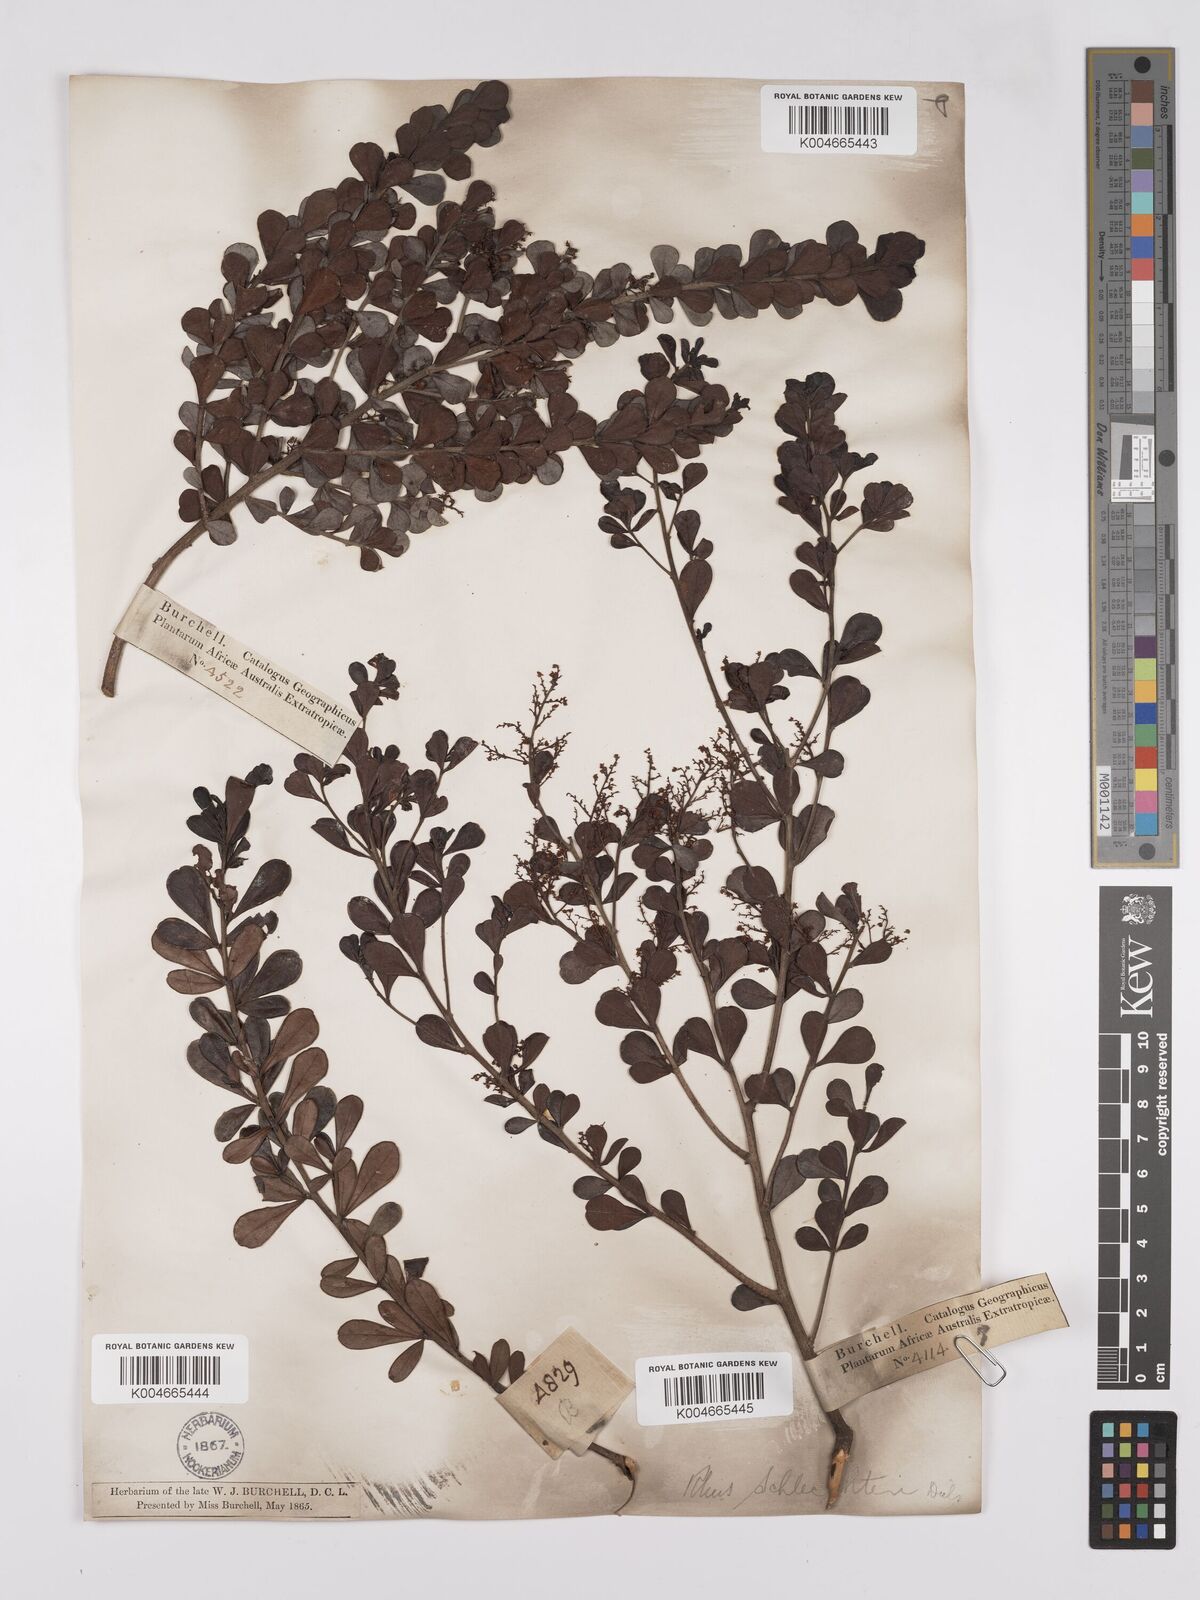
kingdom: Plantae
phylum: Tracheophyta
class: Magnoliopsida
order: Sapindales
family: Anacardiaceae
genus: Searsia
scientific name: Searsia lucida
